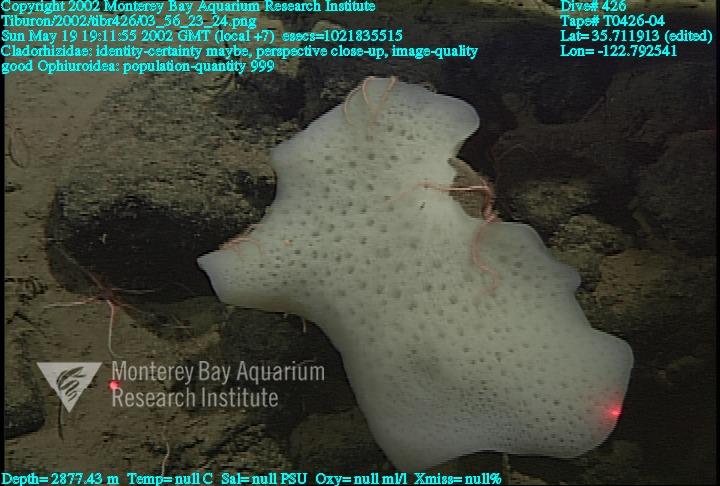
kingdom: Animalia
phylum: Porifera
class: Demospongiae
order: Poecilosclerida
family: Cladorhizidae
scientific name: Cladorhizidae
